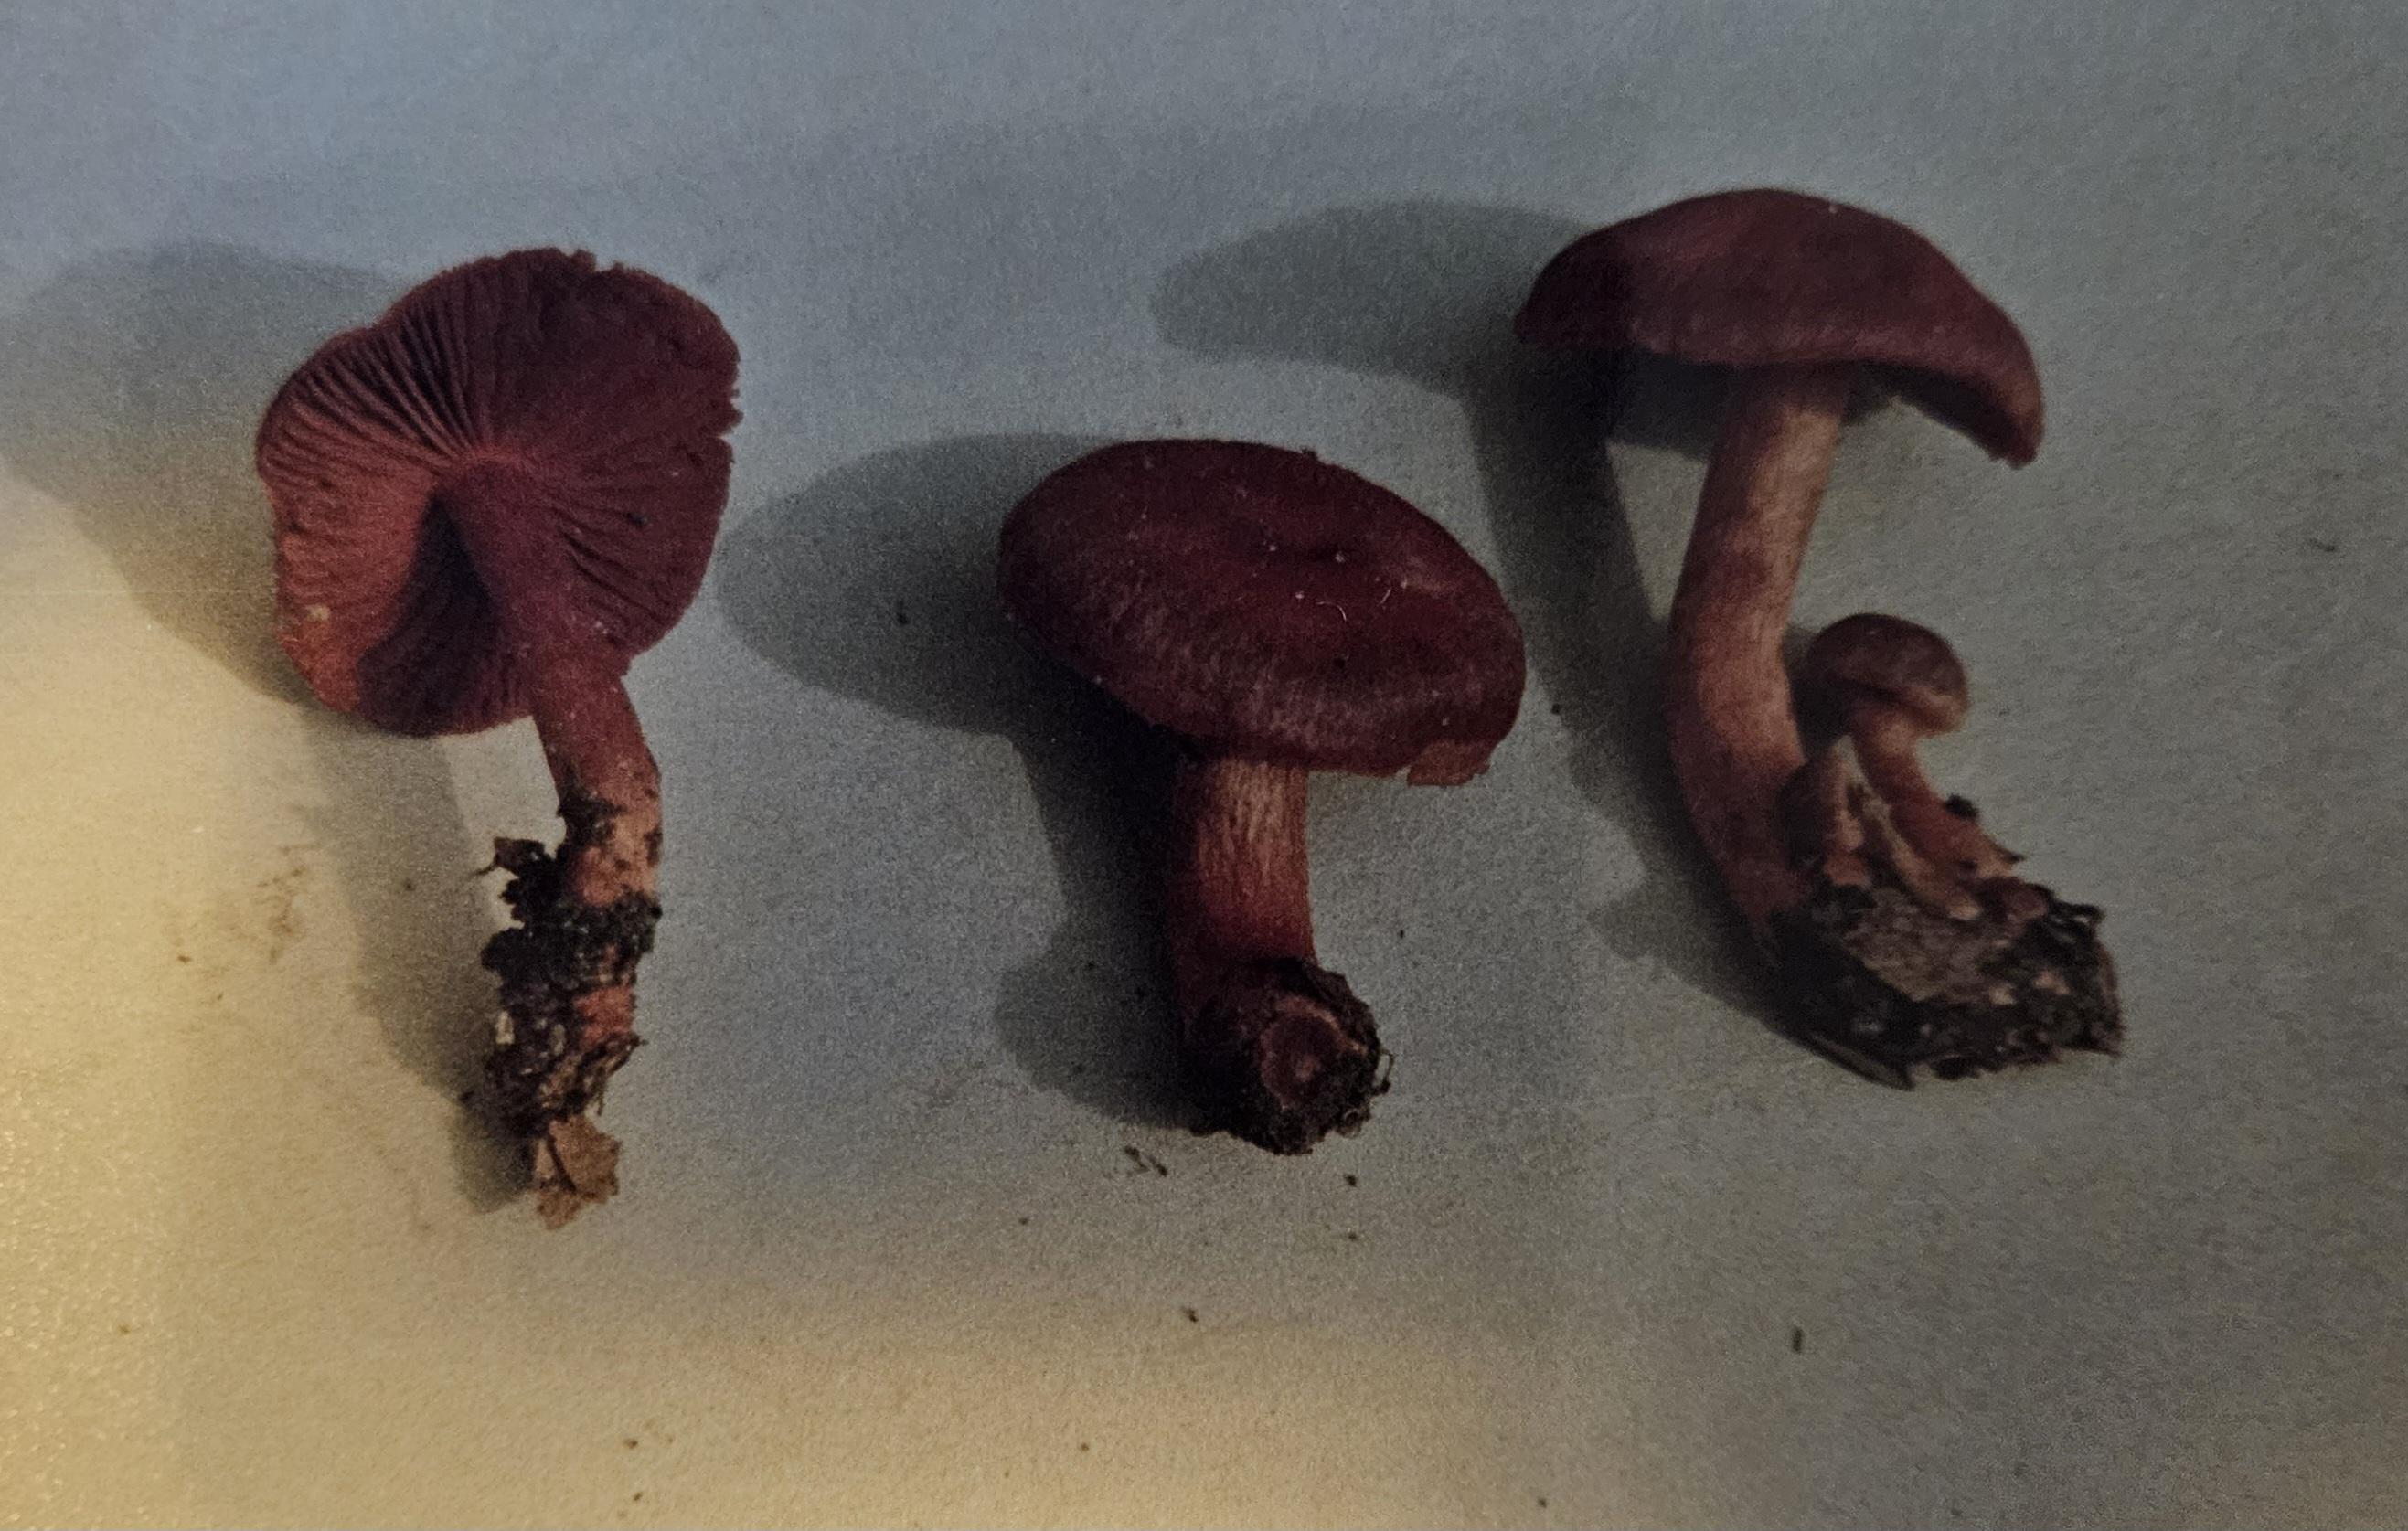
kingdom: Fungi
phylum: Basidiomycota
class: Agaricomycetes
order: Agaricales
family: Cortinariaceae
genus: Cortinarius
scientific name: Cortinarius cinnabarinus
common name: cinnober-slørhat
